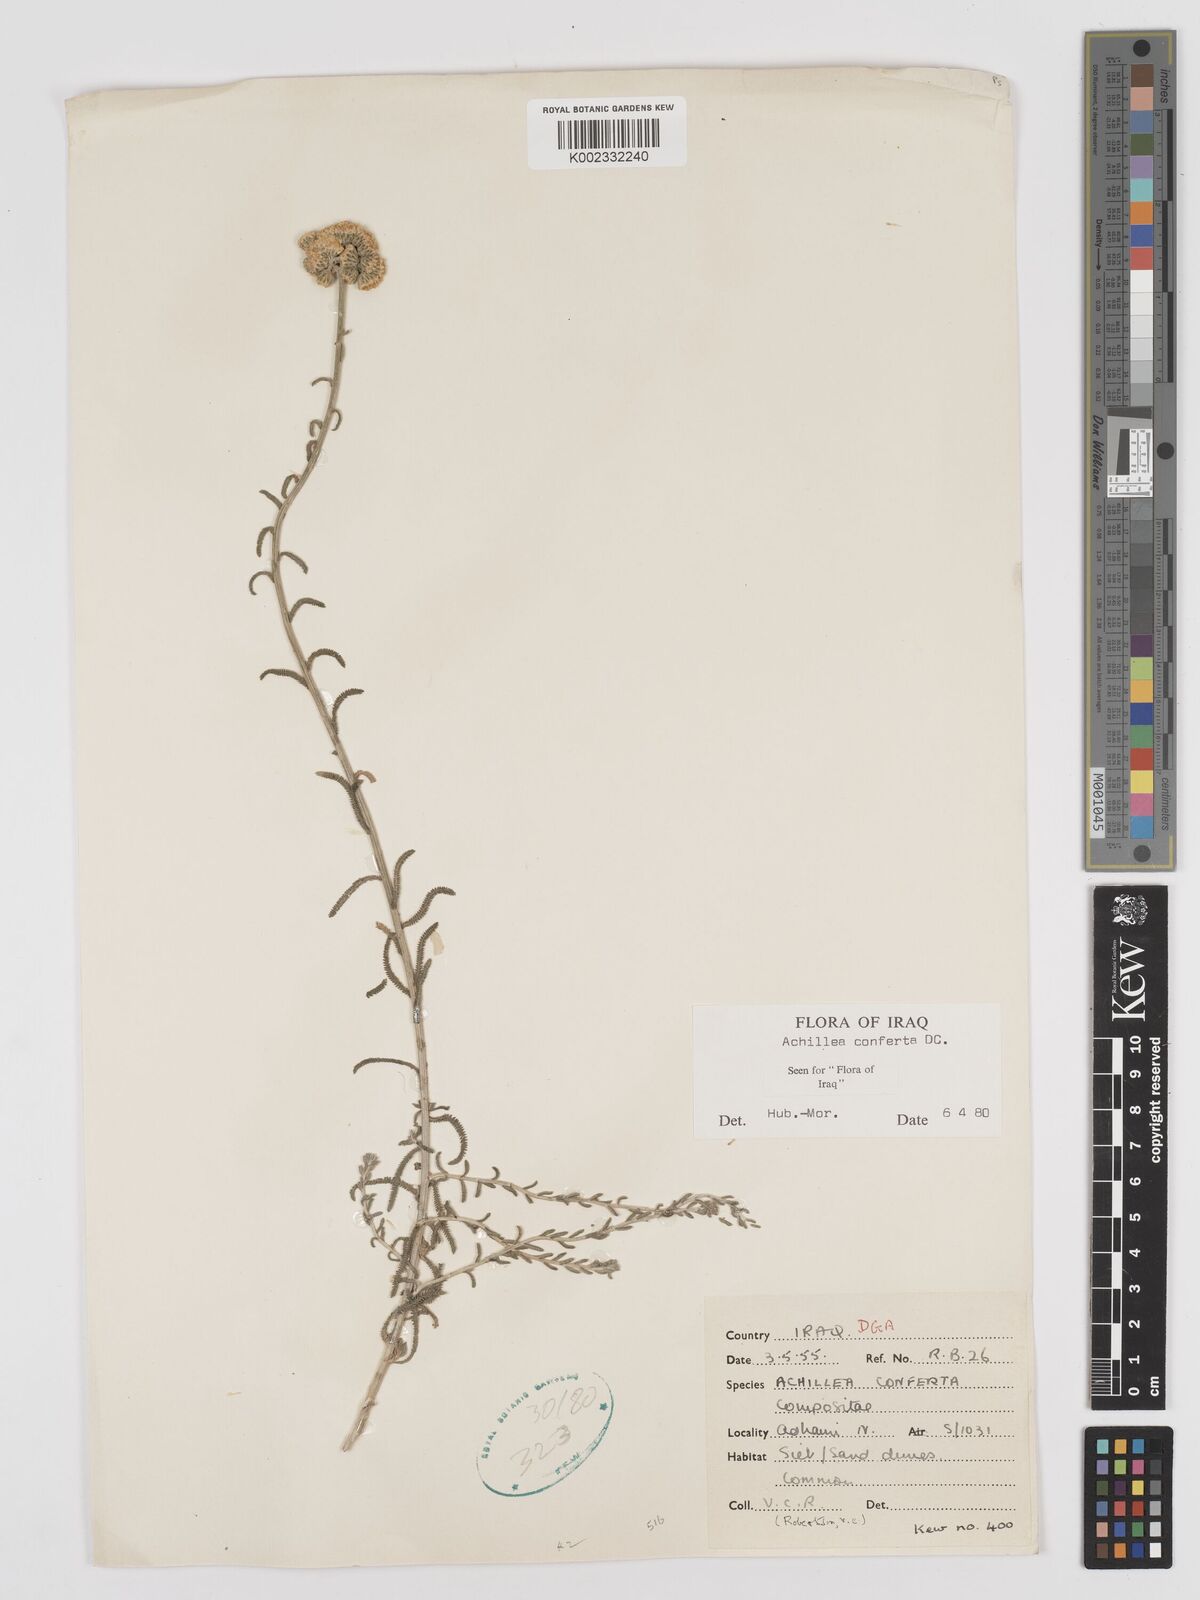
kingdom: Plantae
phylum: Tracheophyta
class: Magnoliopsida
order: Asterales
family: Asteraceae
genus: Achillea
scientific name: Achillea conferta
